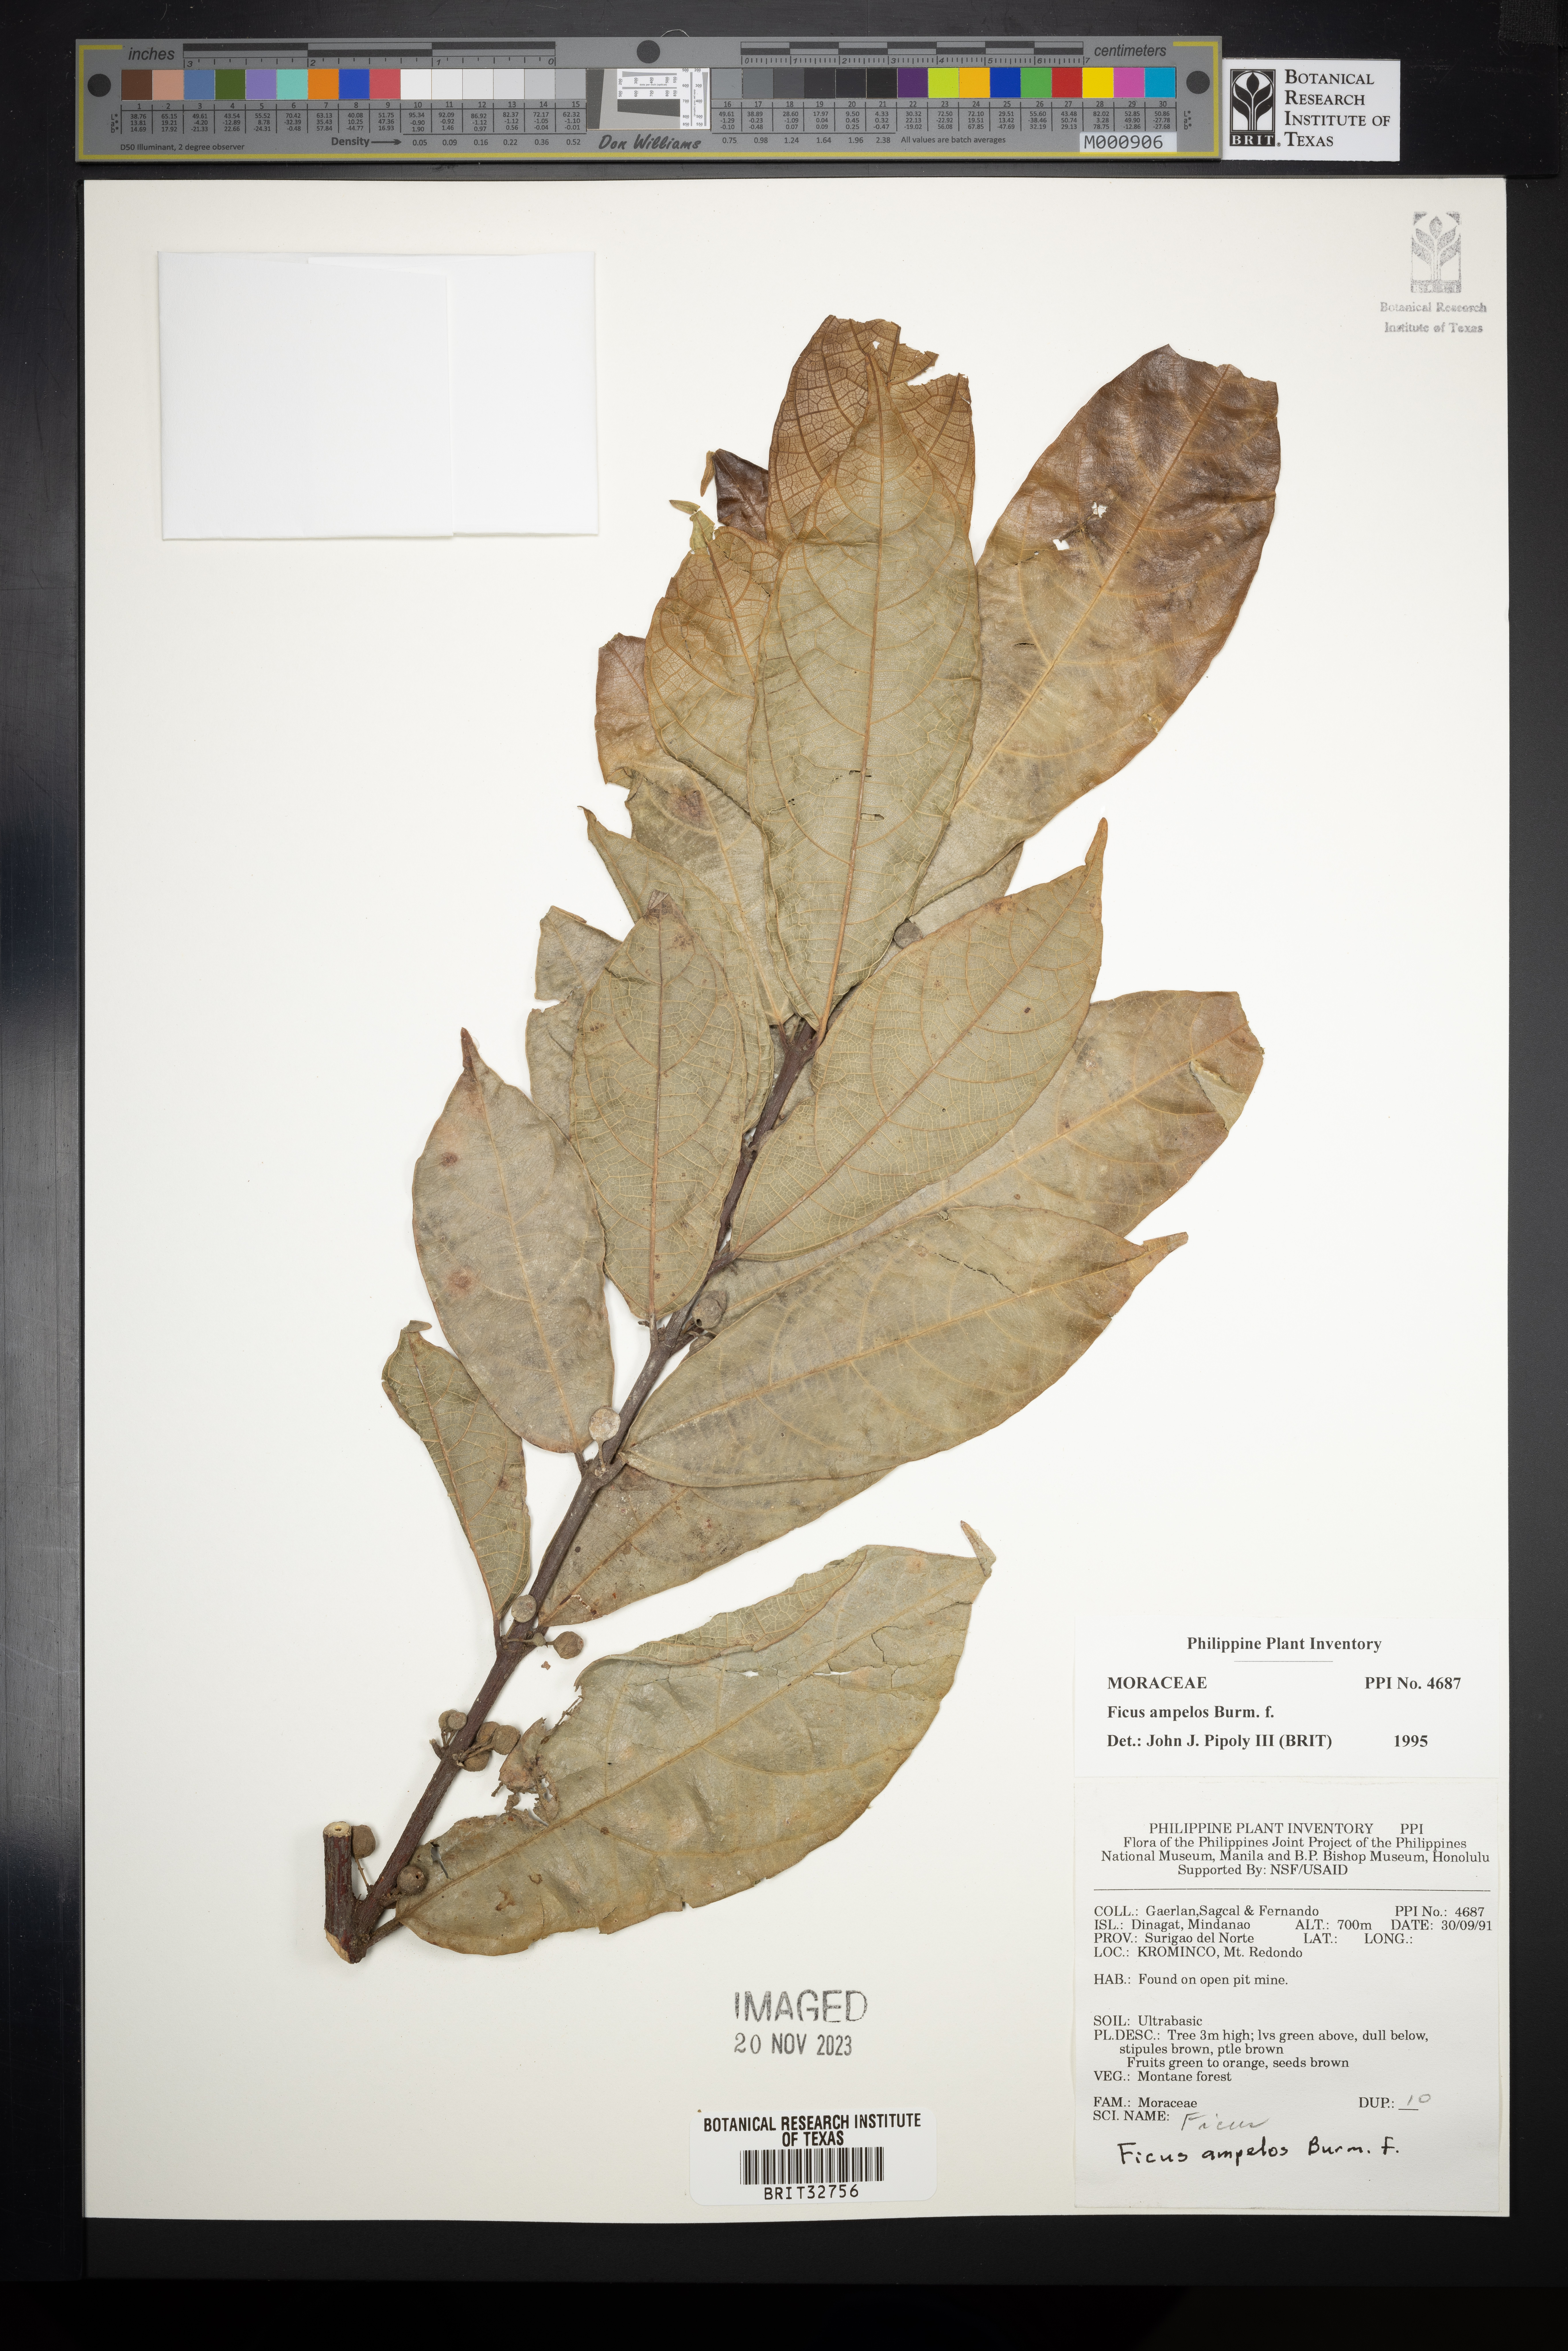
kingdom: Plantae
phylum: Tracheophyta
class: Magnoliopsida
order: Rosales
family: Moraceae
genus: Ficus
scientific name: Ficus ampelos
